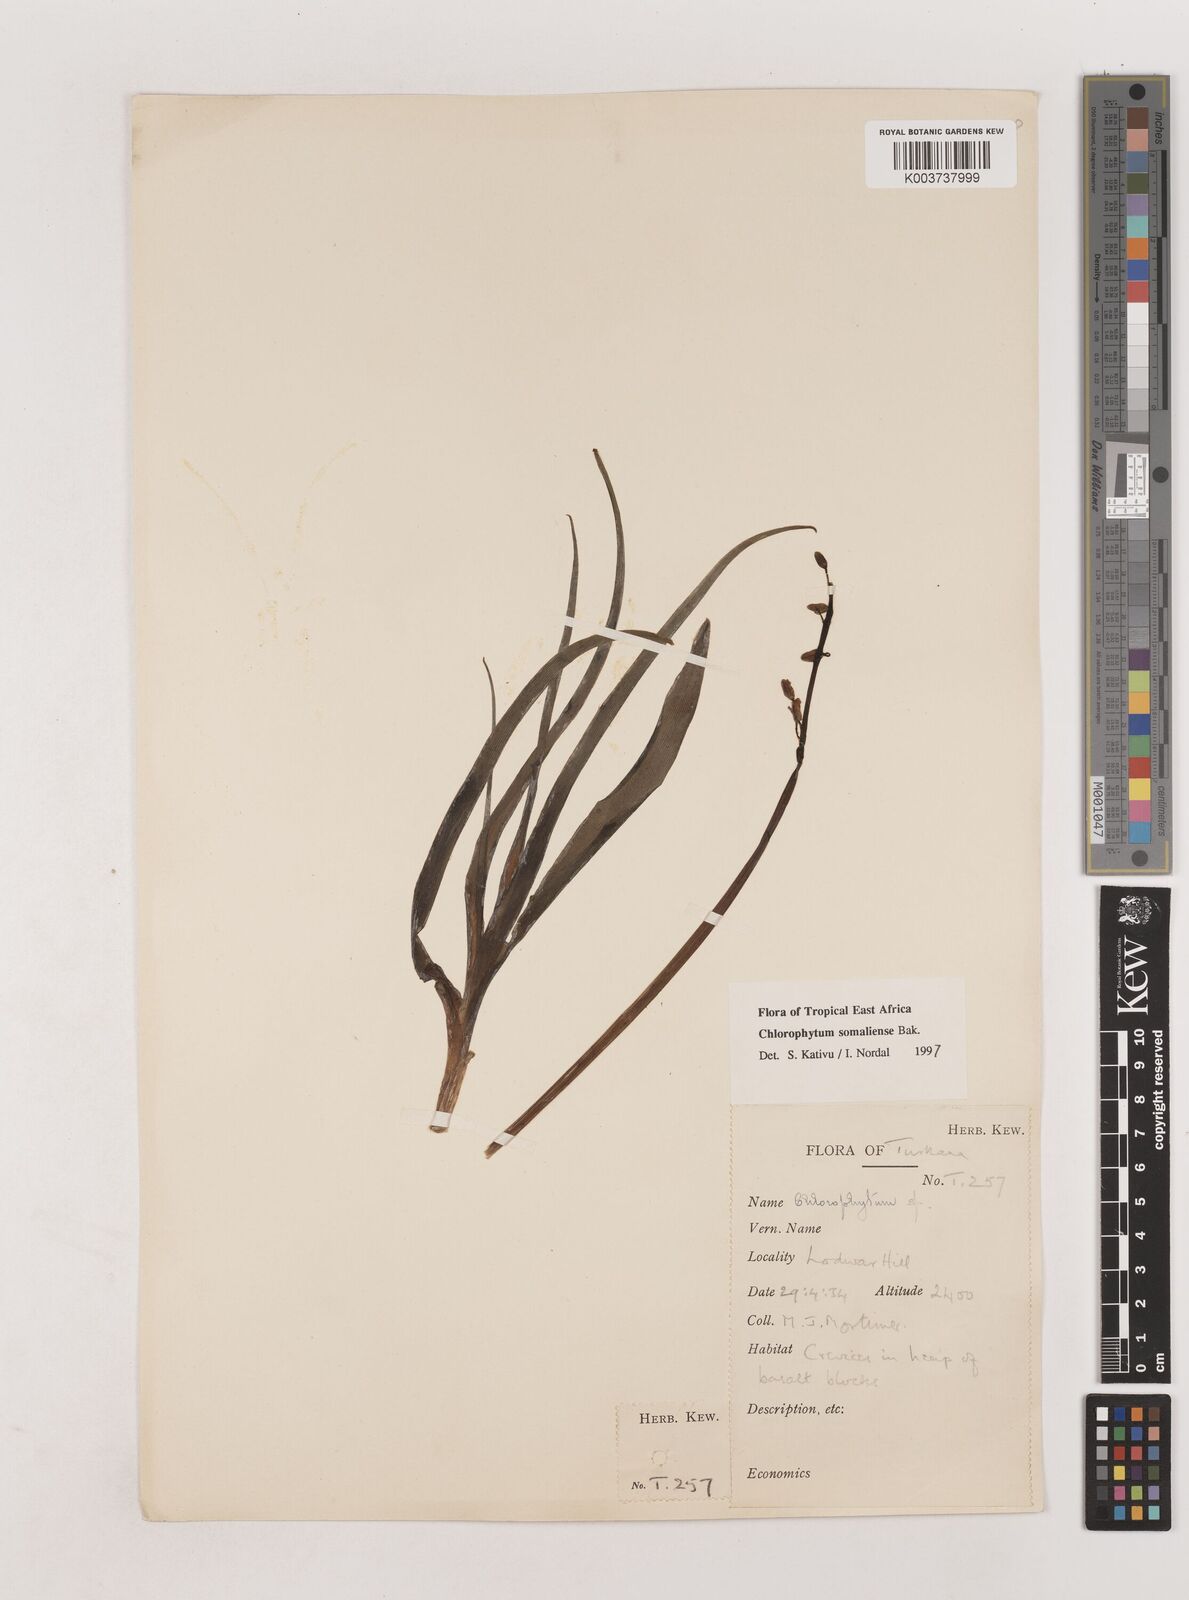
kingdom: Plantae
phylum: Tracheophyta
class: Liliopsida
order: Asparagales
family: Asparagaceae
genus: Chlorophytum
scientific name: Chlorophytum somaliense
